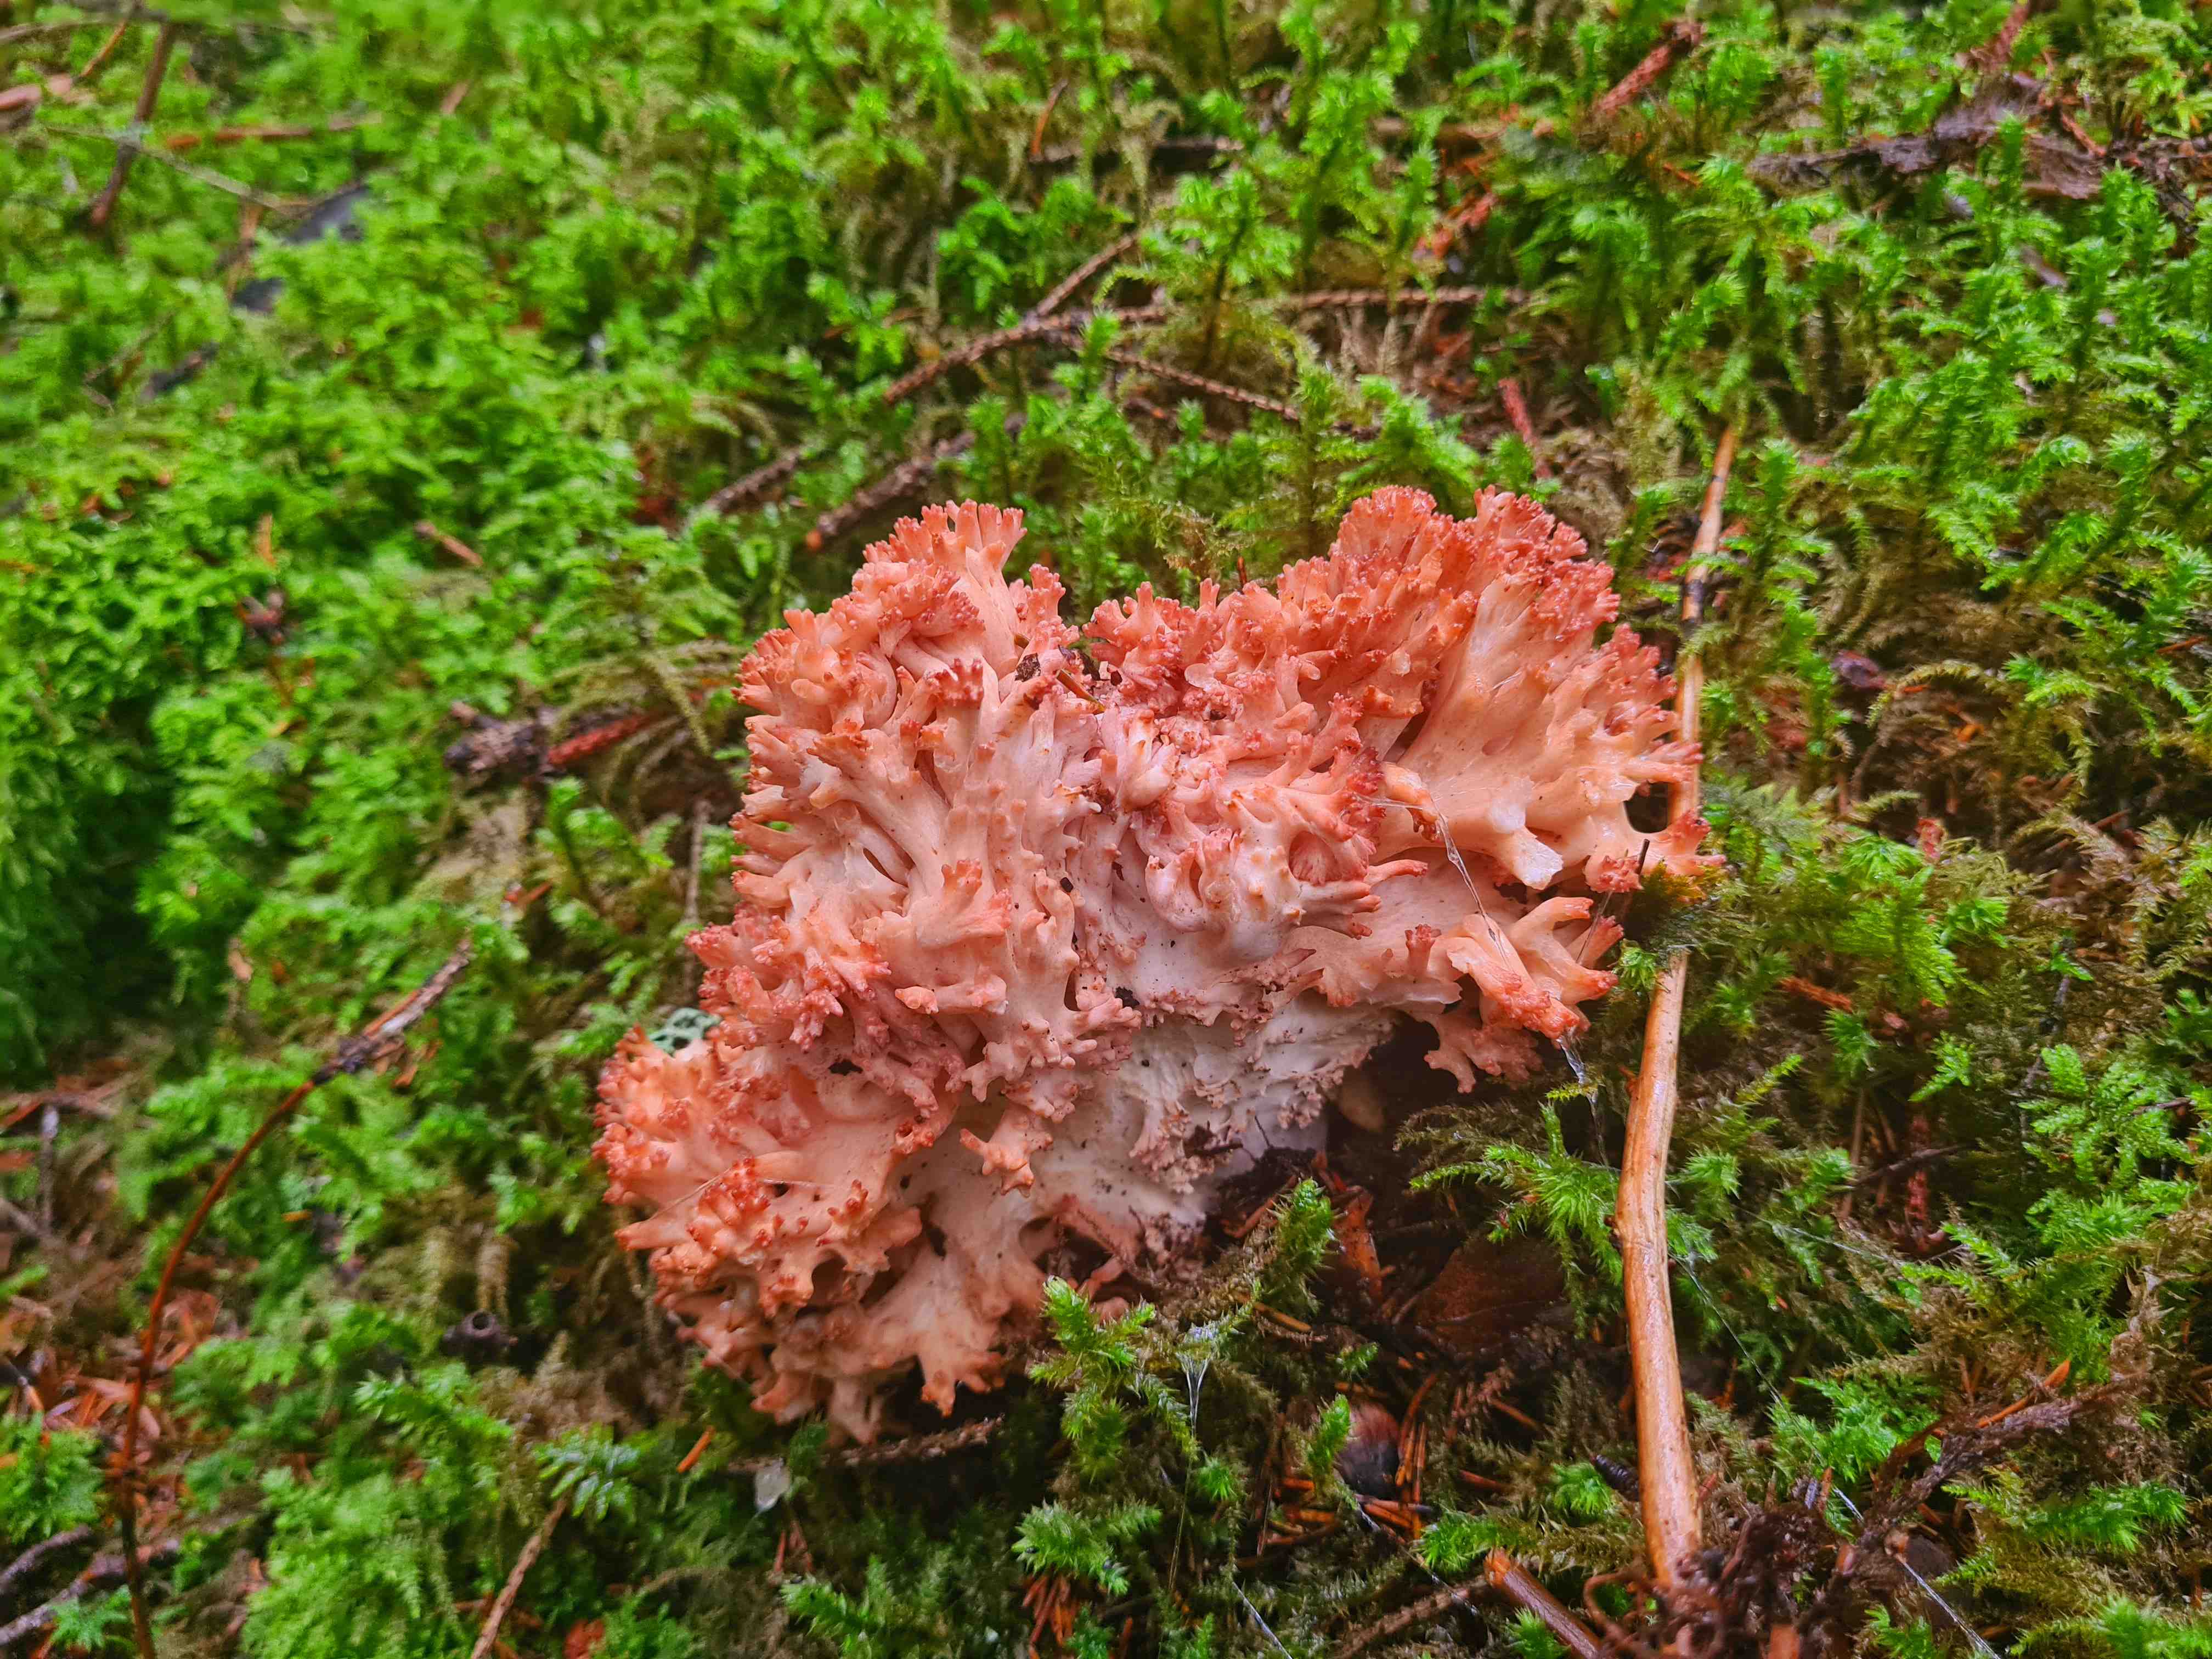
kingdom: Fungi
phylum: Basidiomycota
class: Agaricomycetes
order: Gomphales
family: Gomphaceae
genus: Ramaria
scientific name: Ramaria botrytis
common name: drue-koralsvamp
